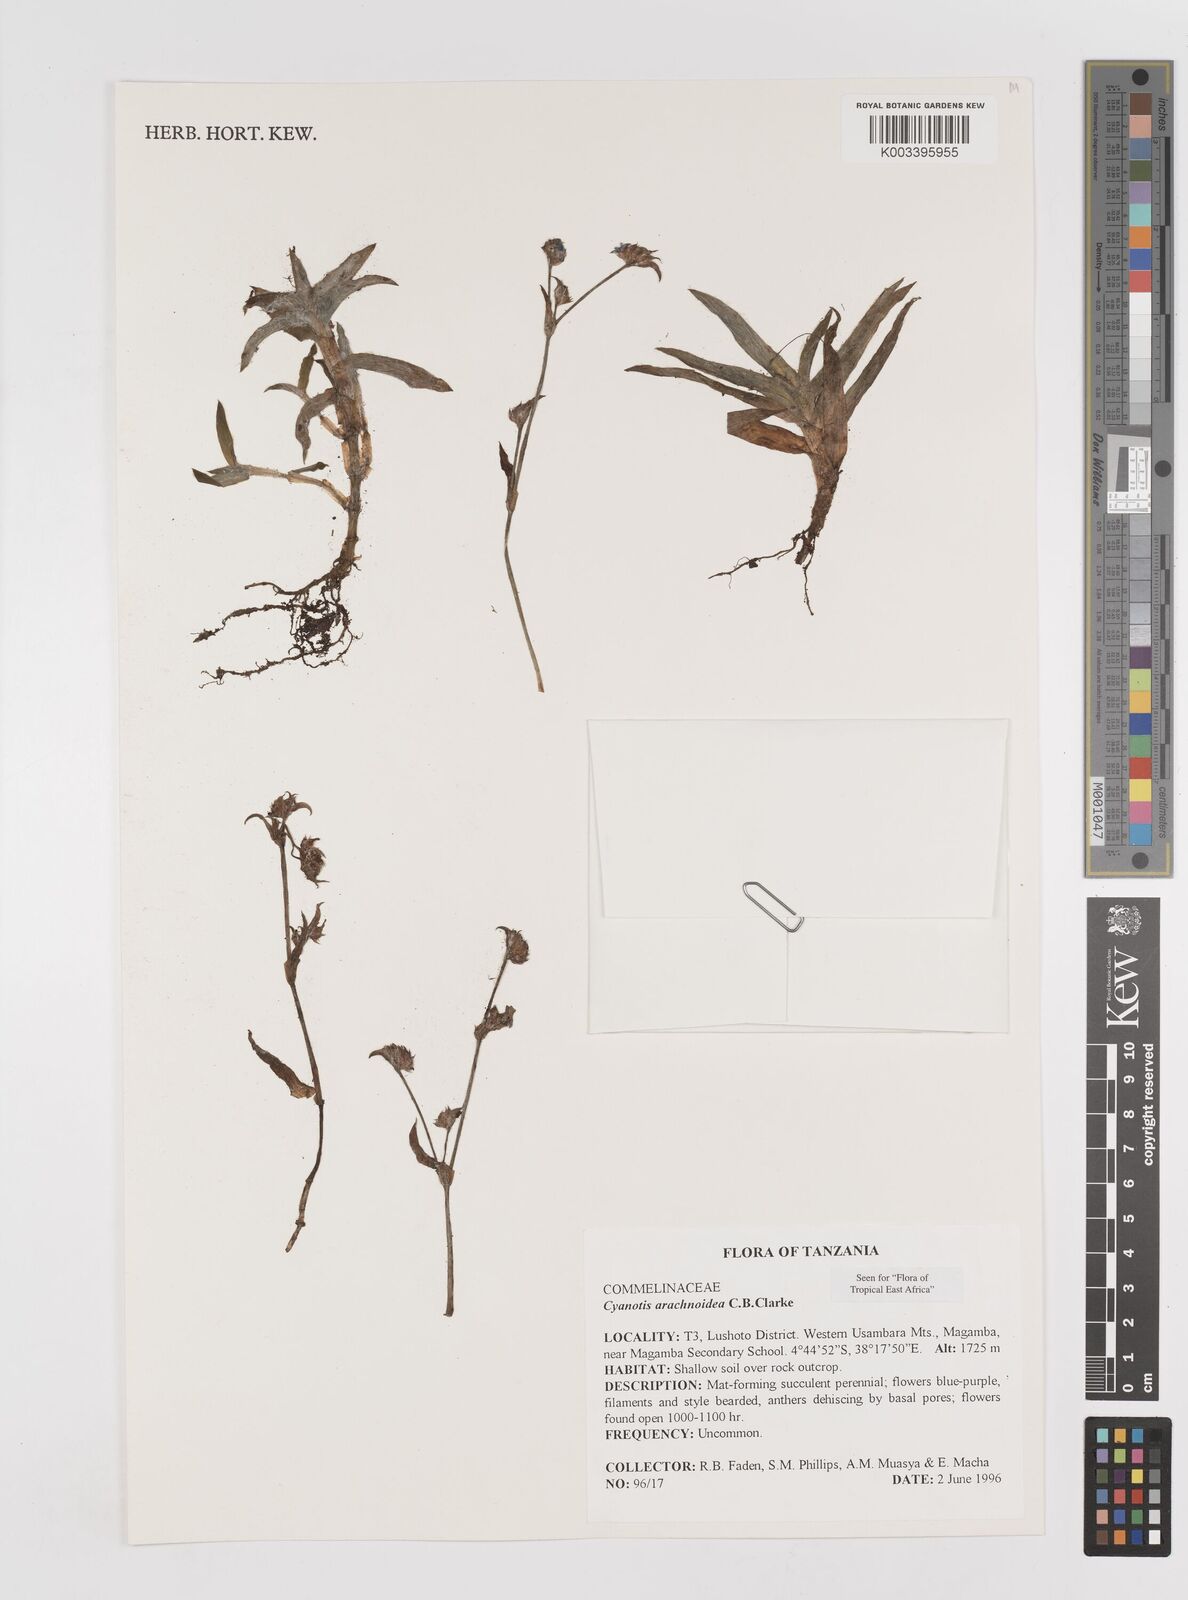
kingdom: Plantae
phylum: Tracheophyta
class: Liliopsida
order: Commelinales
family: Commelinaceae
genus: Cyanotis
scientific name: Cyanotis arachnoidea
